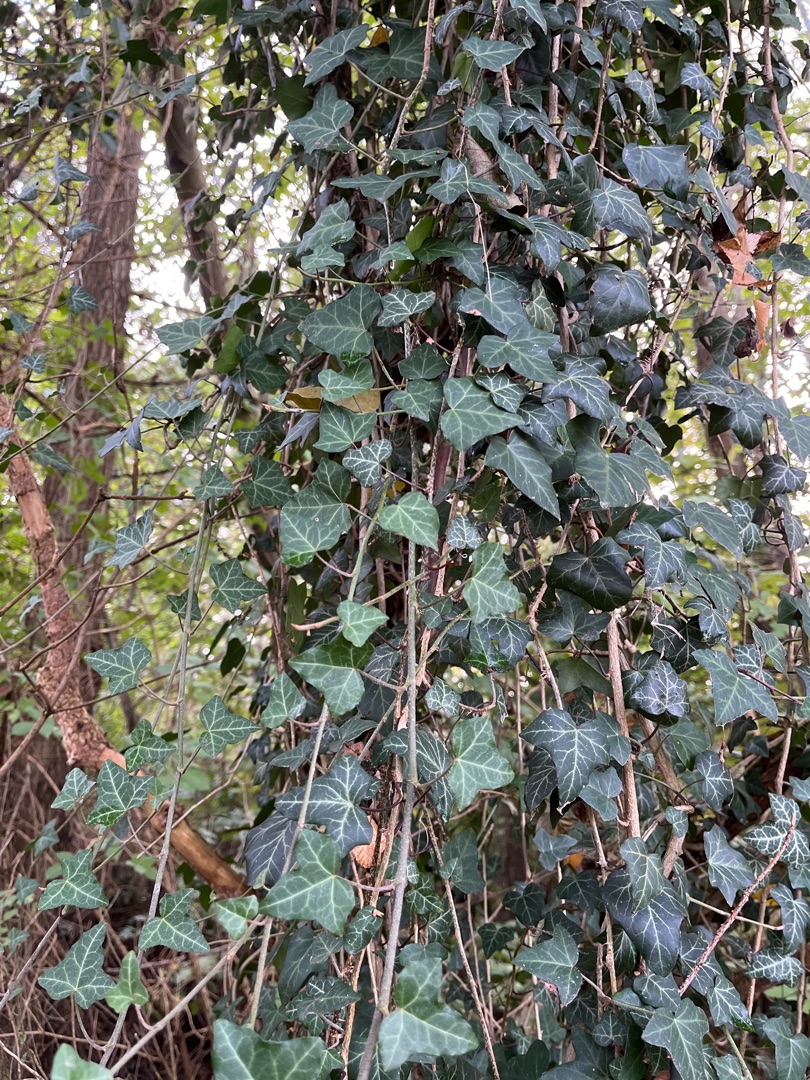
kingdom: Plantae
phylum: Tracheophyta
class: Magnoliopsida
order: Apiales
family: Araliaceae
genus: Hedera
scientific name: Hedera helix
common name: Vedbend
